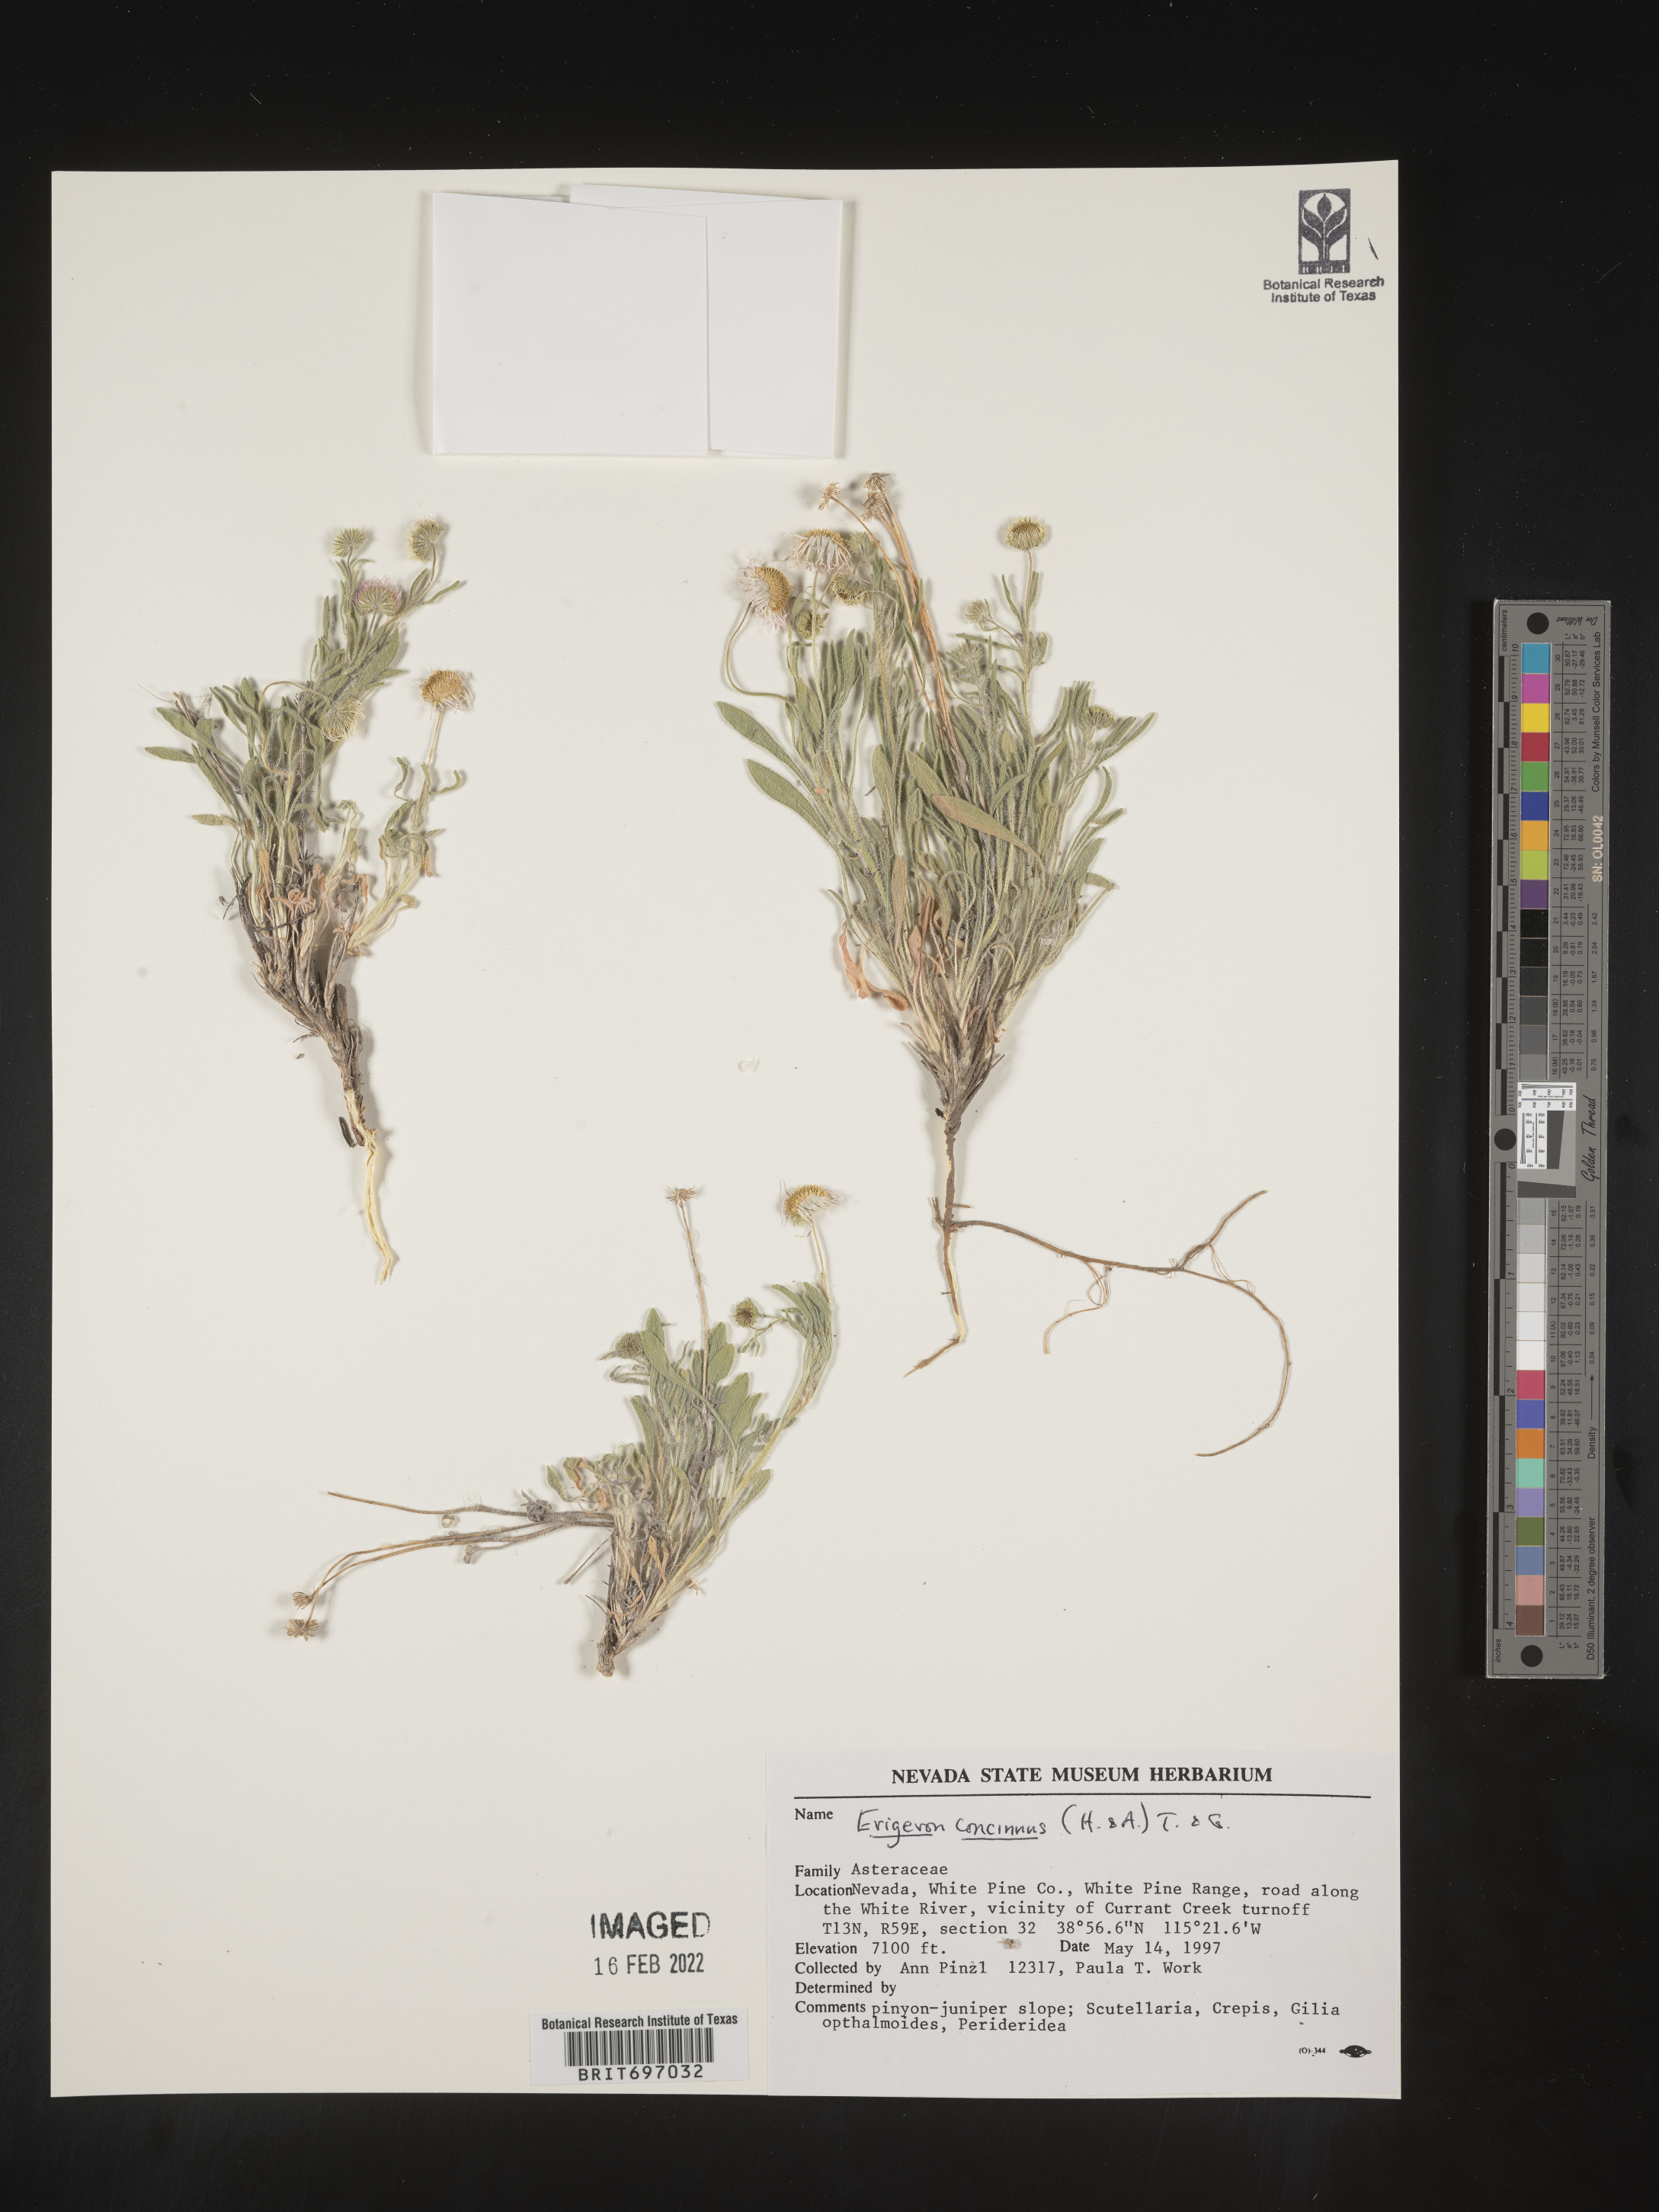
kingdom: Plantae
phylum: Tracheophyta
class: Magnoliopsida
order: Asterales
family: Asteraceae
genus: Erigeron
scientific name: Erigeron concinnus
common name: Navajo fleabane
